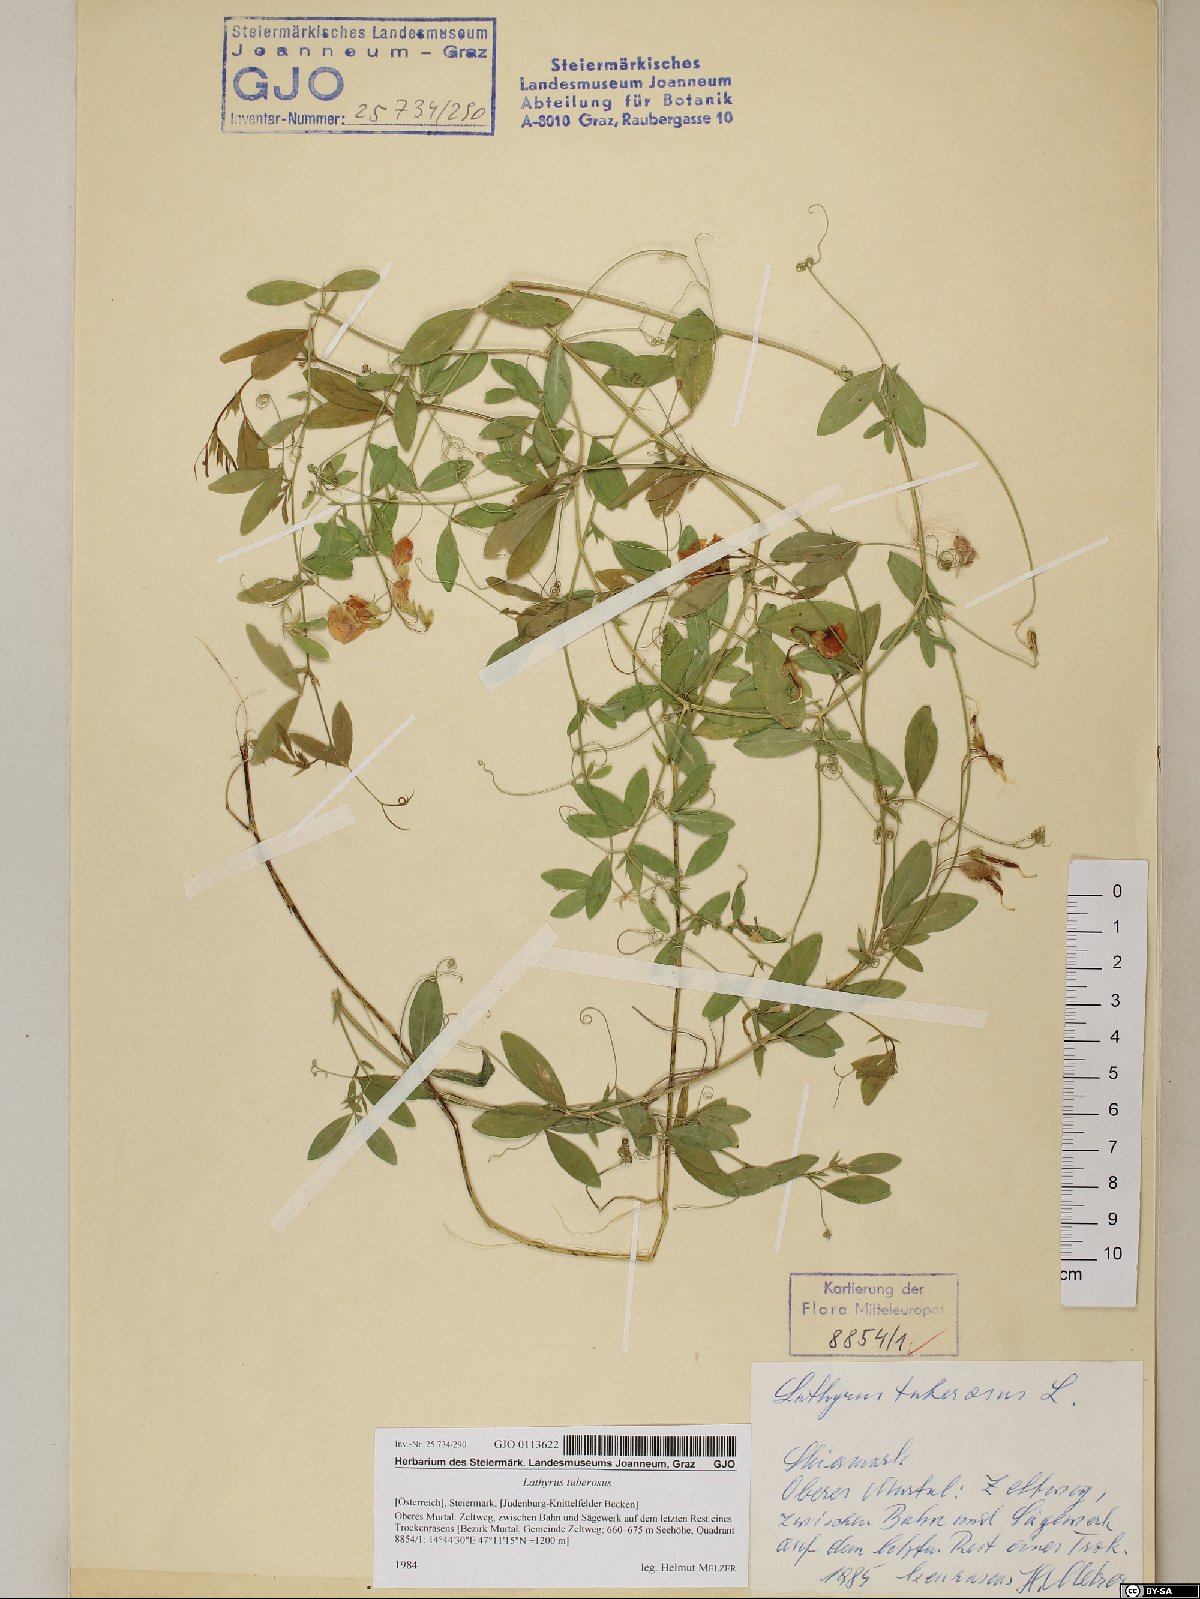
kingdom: Plantae
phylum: Tracheophyta
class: Magnoliopsida
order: Fabales
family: Fabaceae
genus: Lathyrus
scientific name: Lathyrus tuberosus
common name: Tuberous pea
